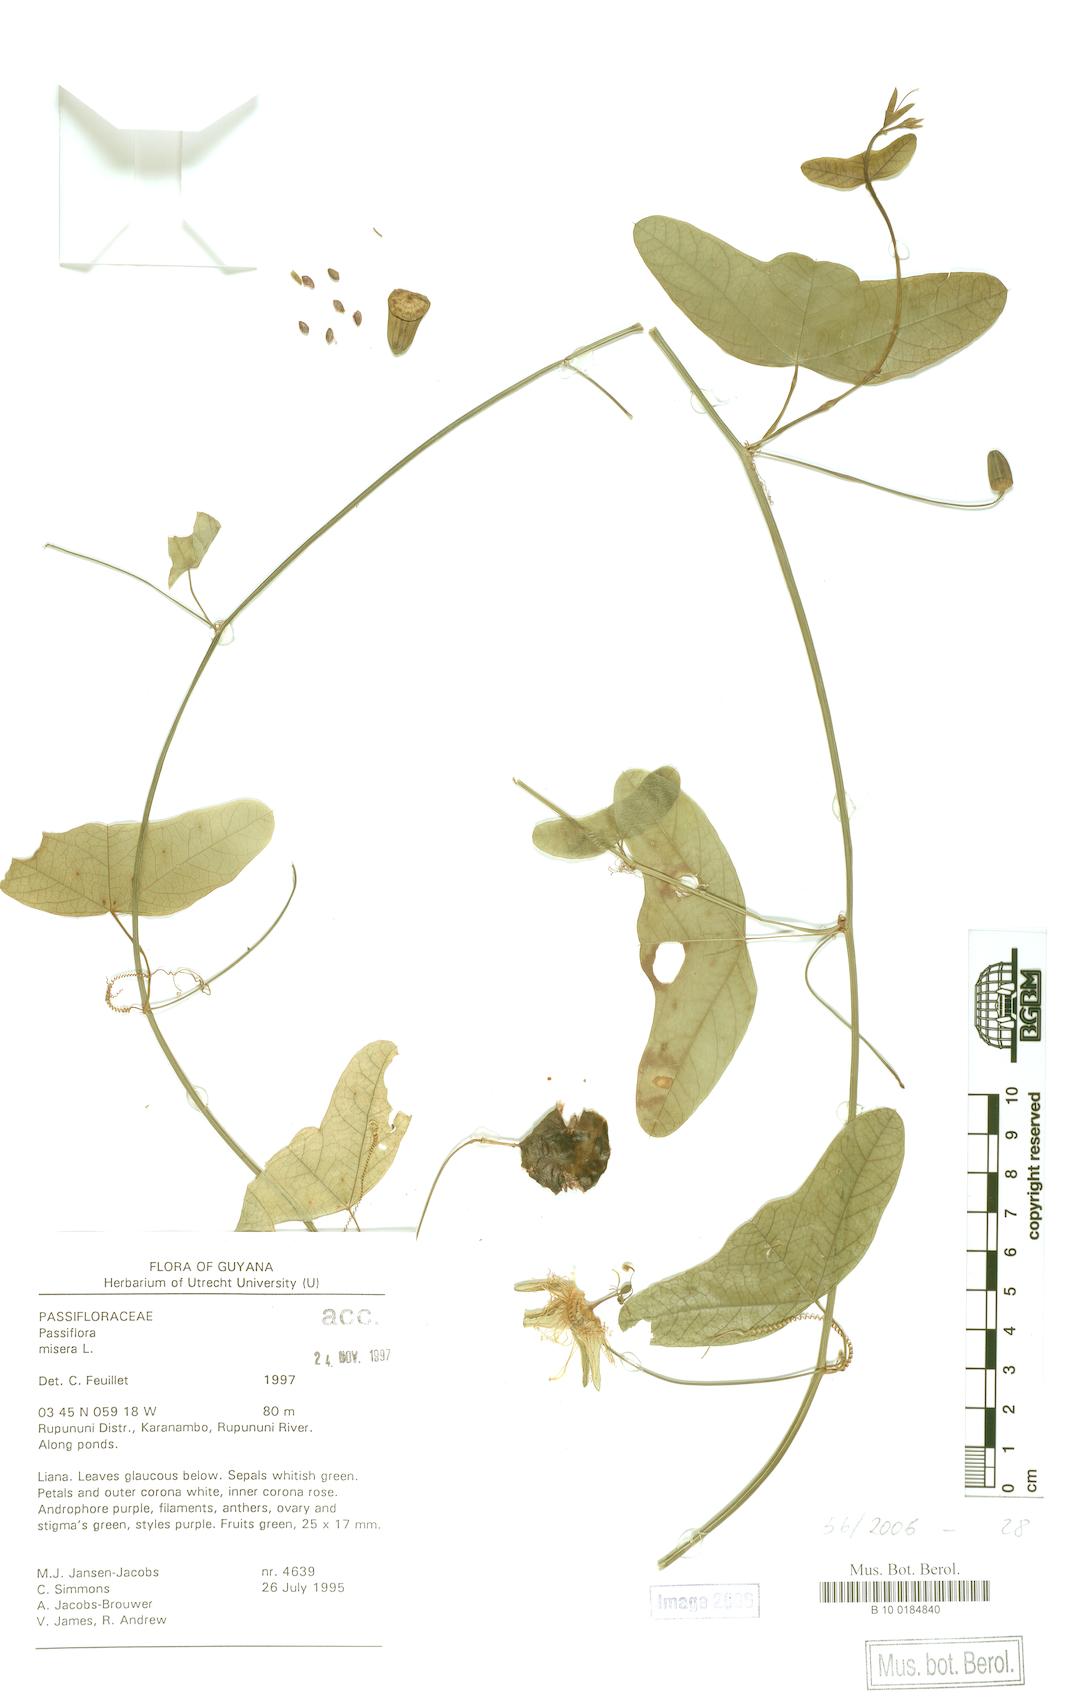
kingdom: Plantae
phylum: Tracheophyta
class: Magnoliopsida
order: Malpighiales
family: Passifloraceae
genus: Passiflora
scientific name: Passiflora amalocarpa
